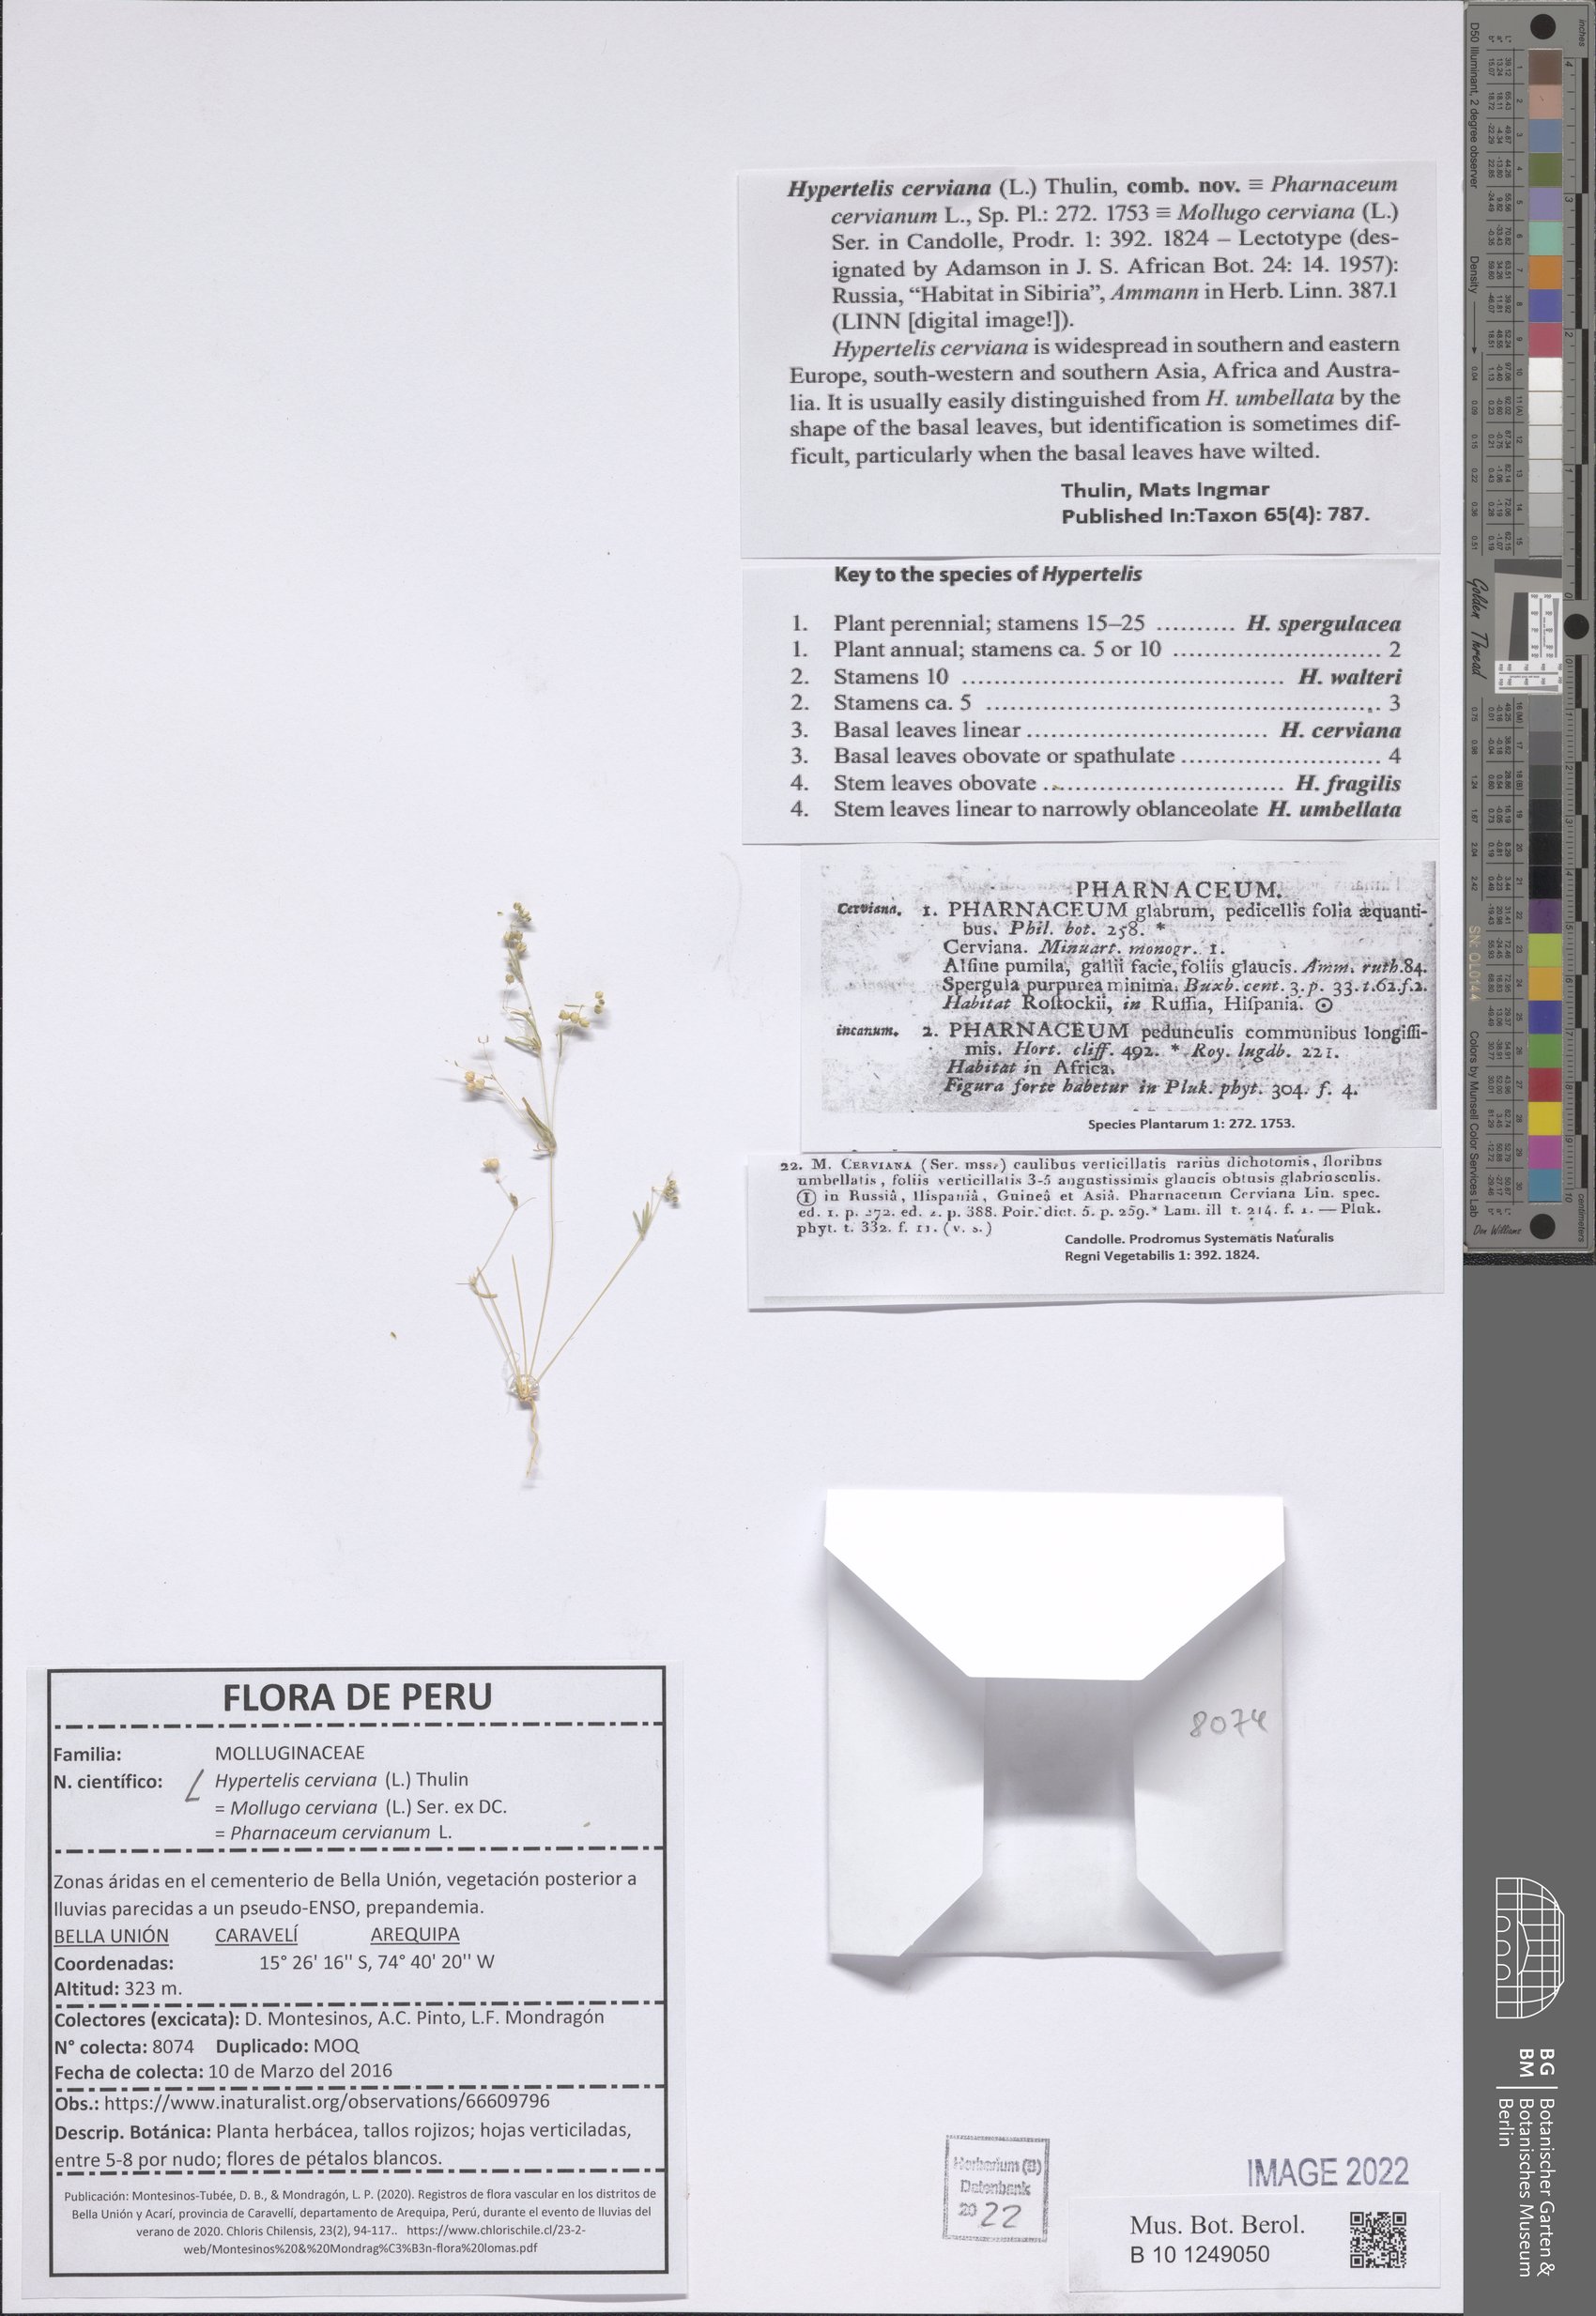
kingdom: Plantae
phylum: Tracheophyta
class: Magnoliopsida
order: Caryophyllales
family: Molluginaceae
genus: Hypertelis
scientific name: Hypertelis cerviana
